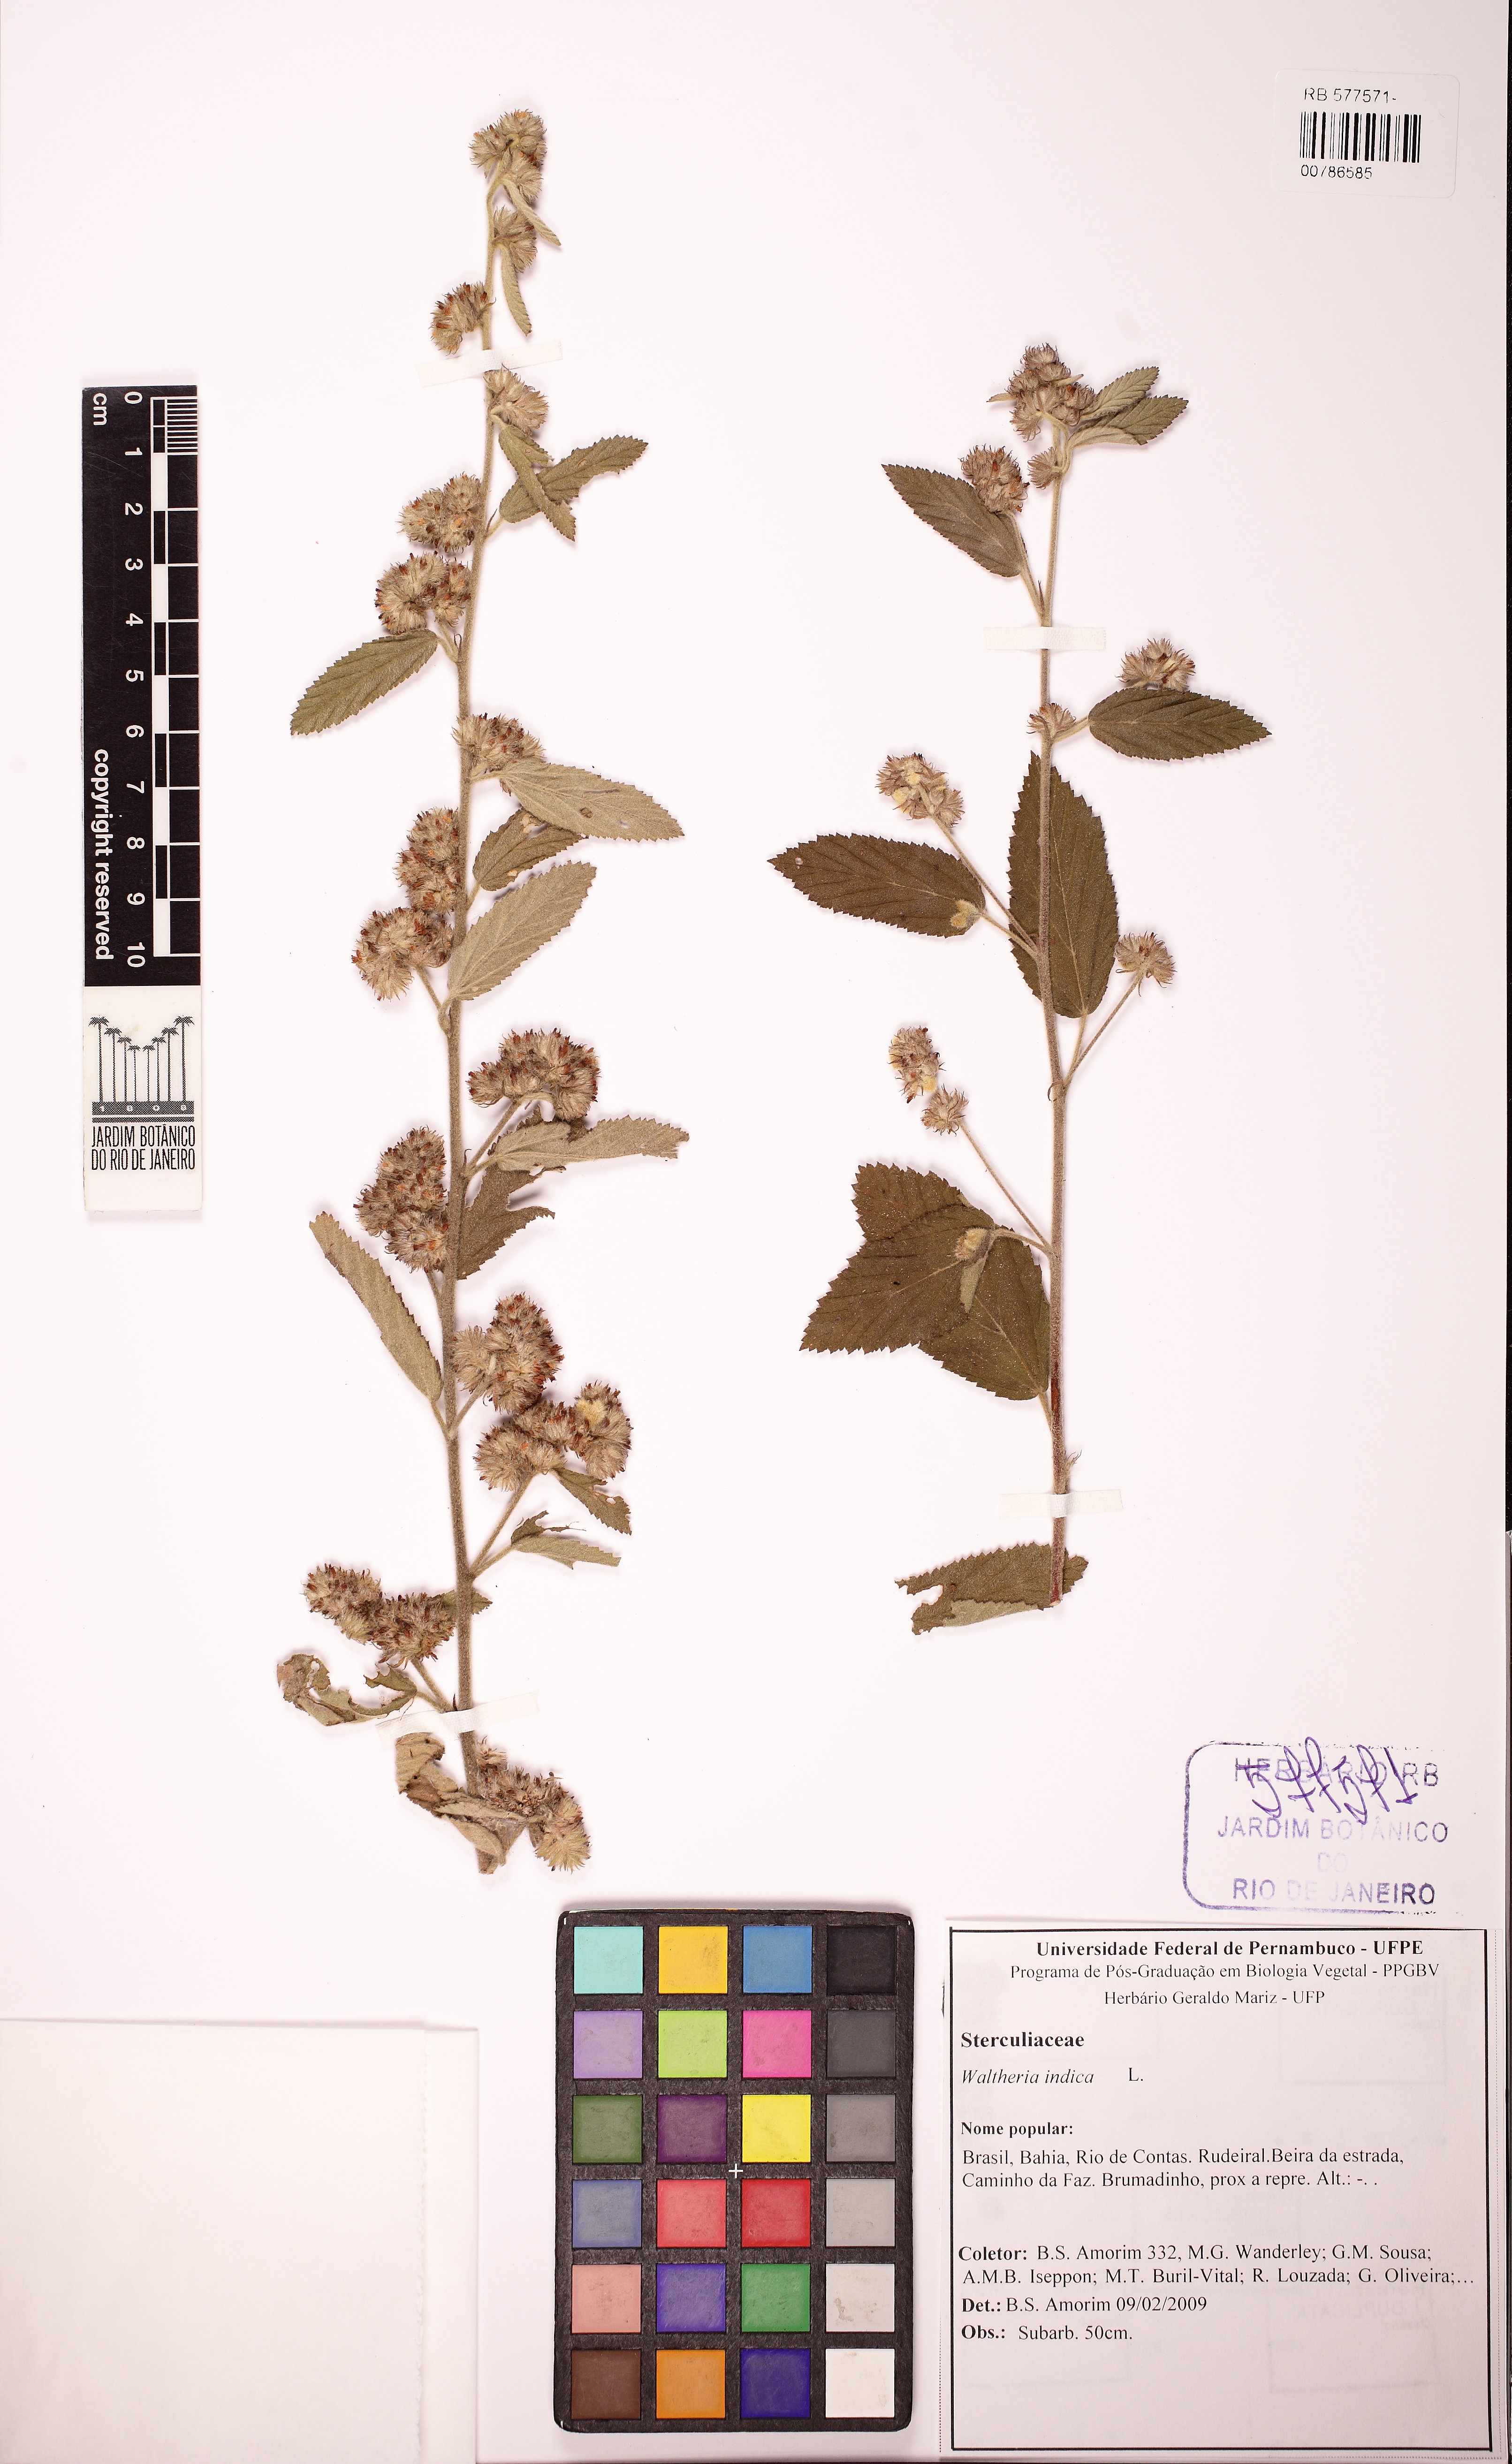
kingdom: Plantae
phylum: Tracheophyta
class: Magnoliopsida
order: Malvales
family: Malvaceae
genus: Waltheria
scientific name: Waltheria indica
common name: Leather-coat
